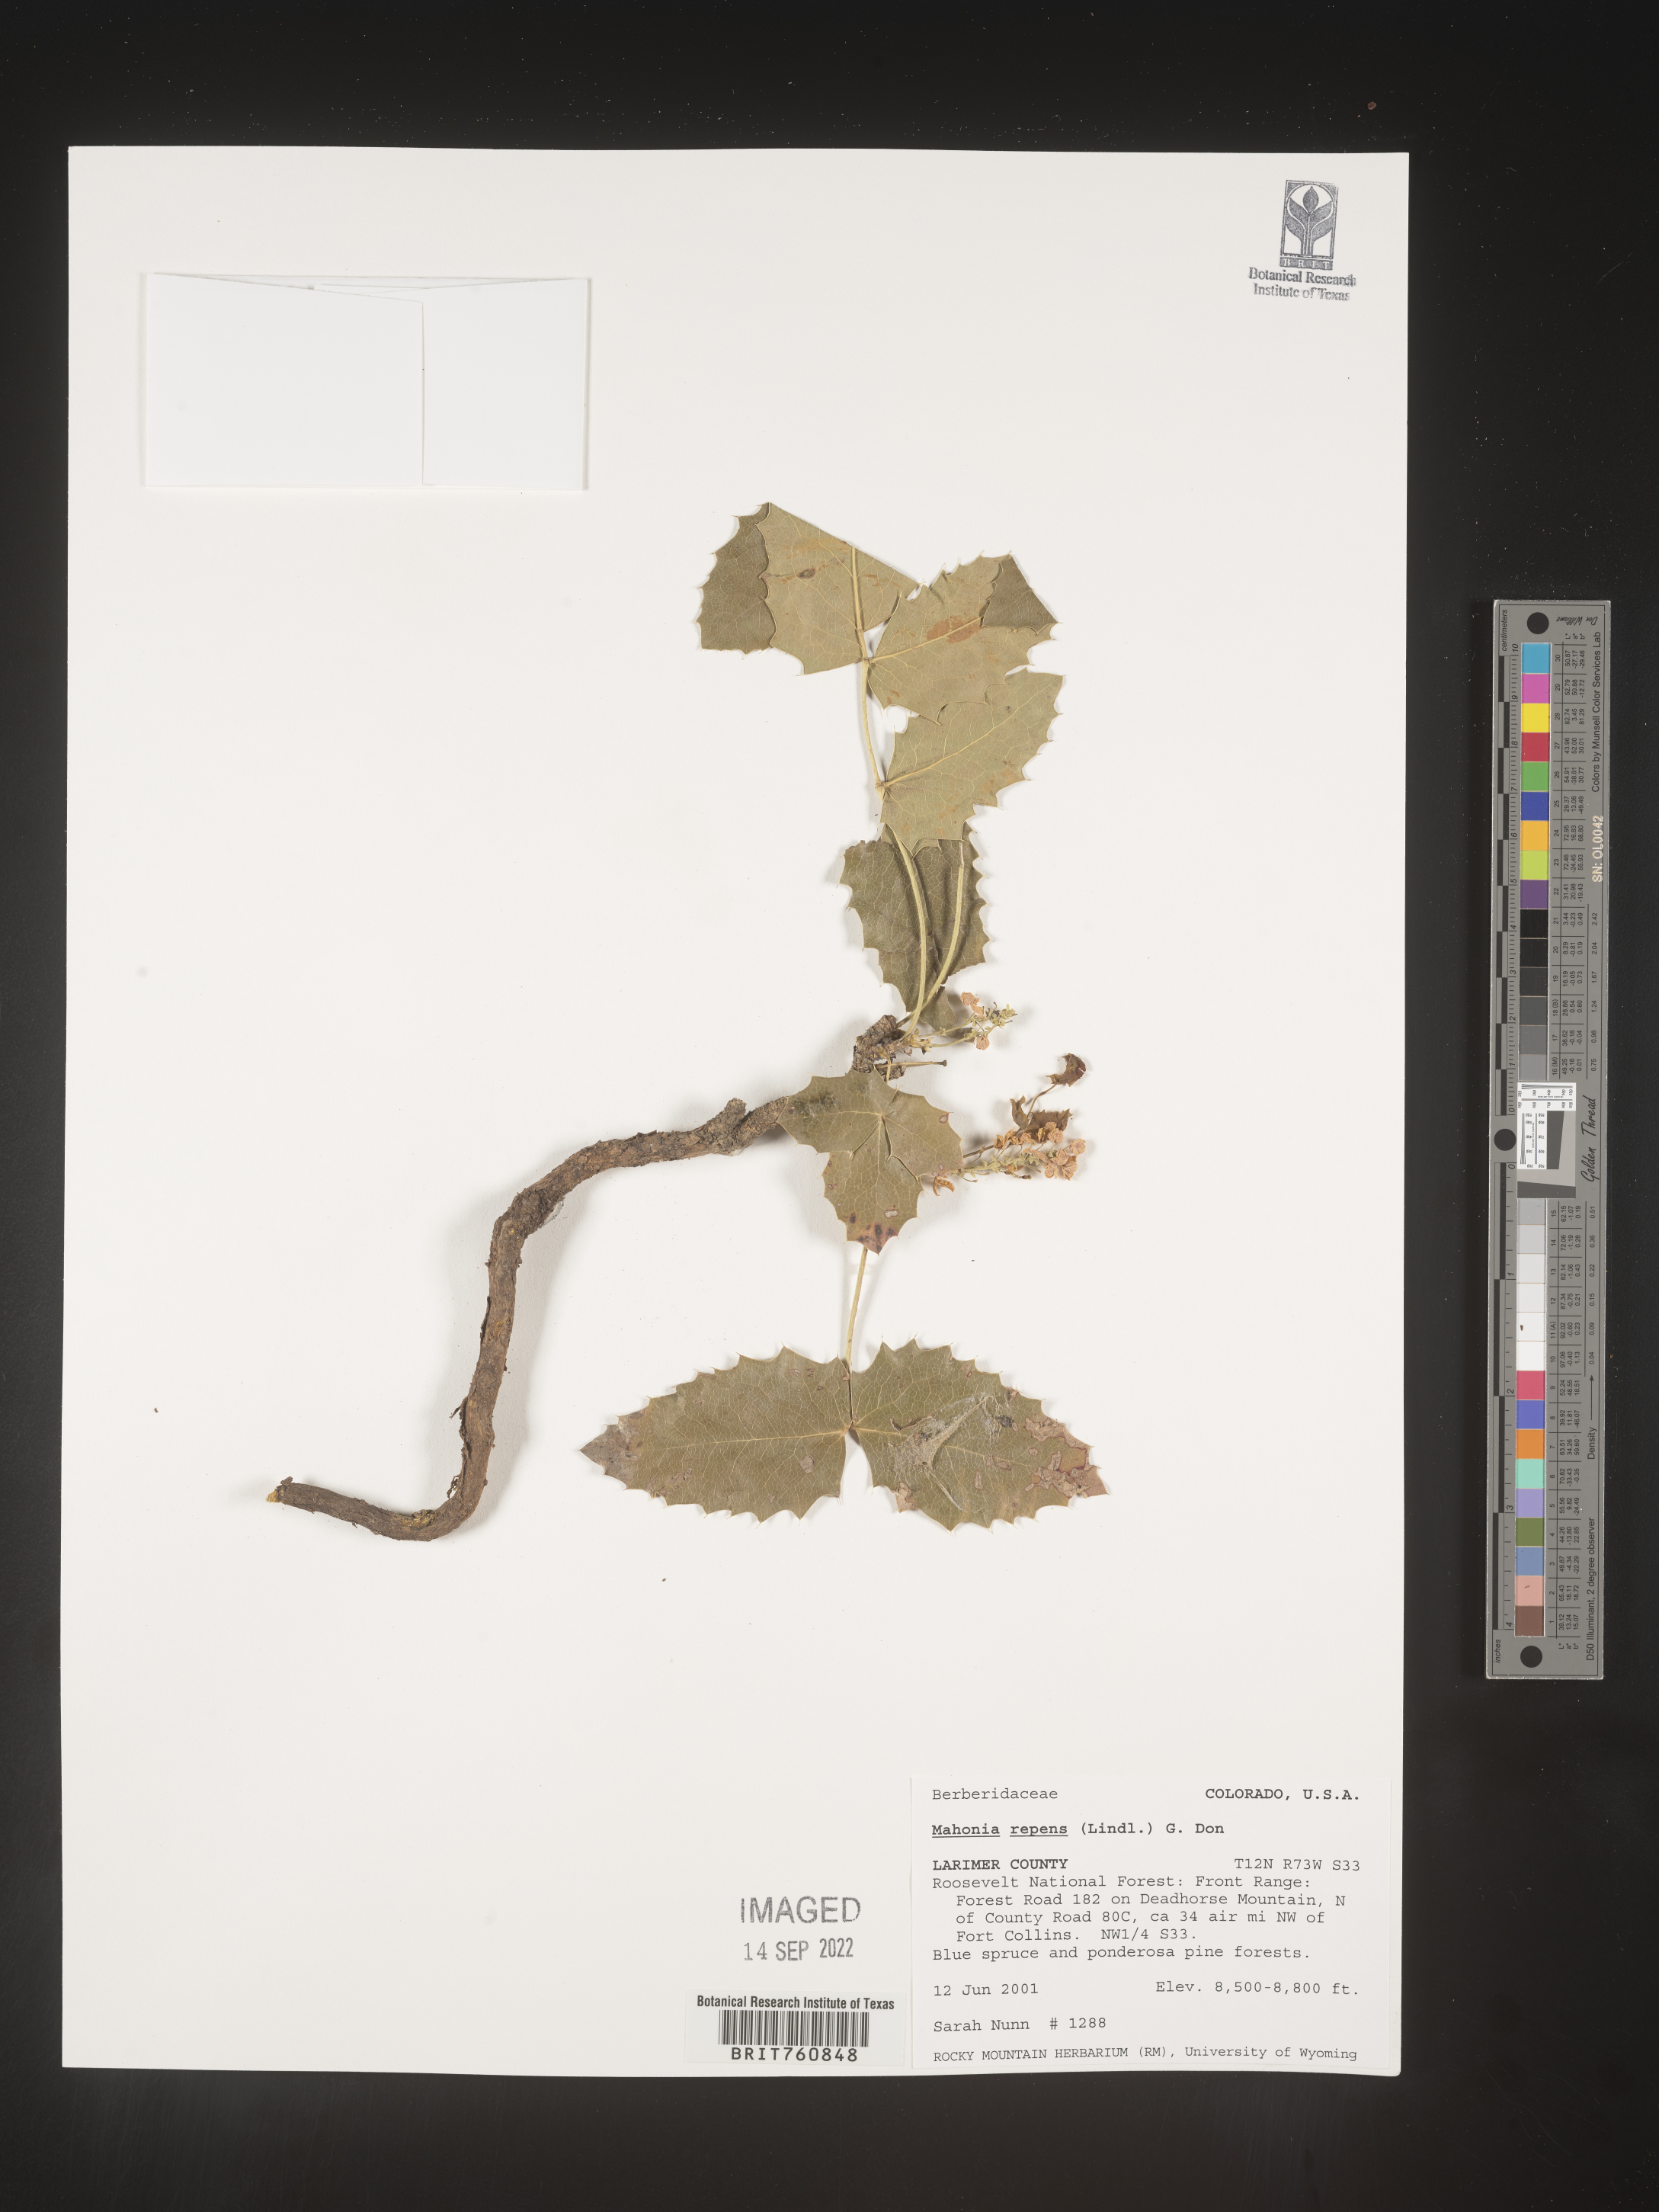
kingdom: Plantae
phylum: Tracheophyta
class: Magnoliopsida
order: Ranunculales
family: Berberidaceae
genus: Mahonia
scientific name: Mahonia repens
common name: Creeping oregon-grape
